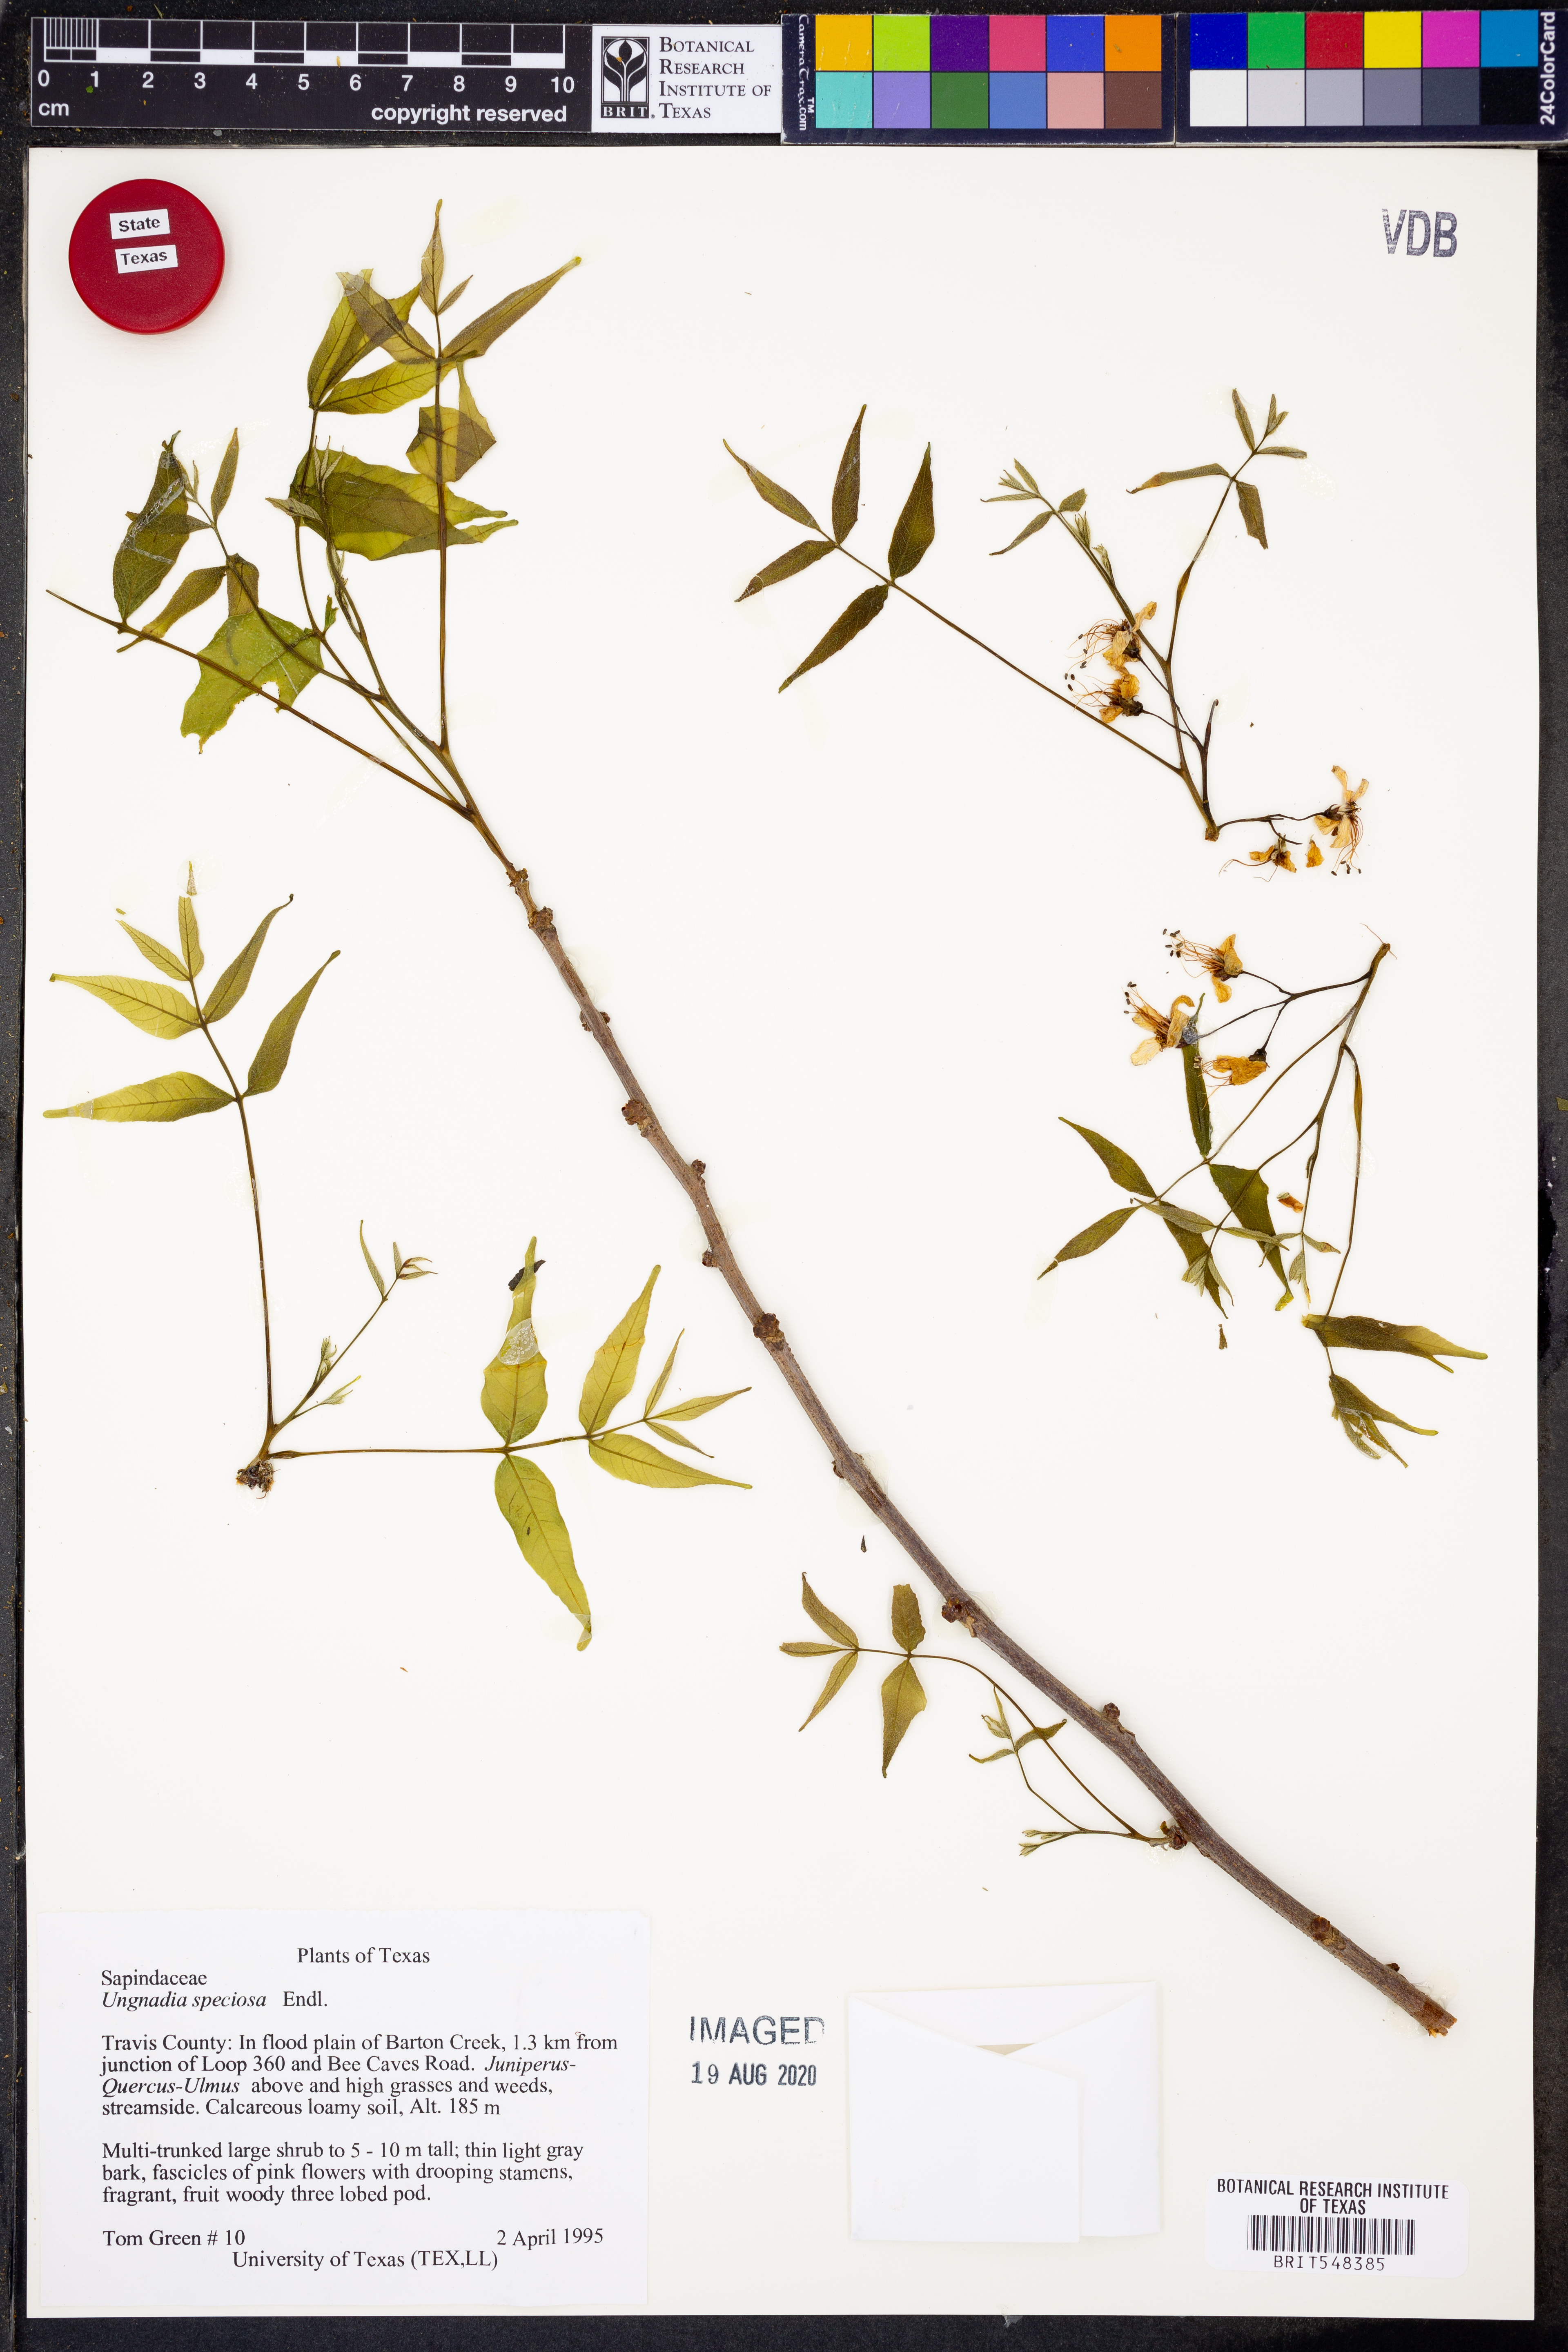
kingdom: Plantae
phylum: Tracheophyta
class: Magnoliopsida
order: Sapindales
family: Sapindaceae
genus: Ungnadia
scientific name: Ungnadia speciosa
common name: Texas-buckeye
